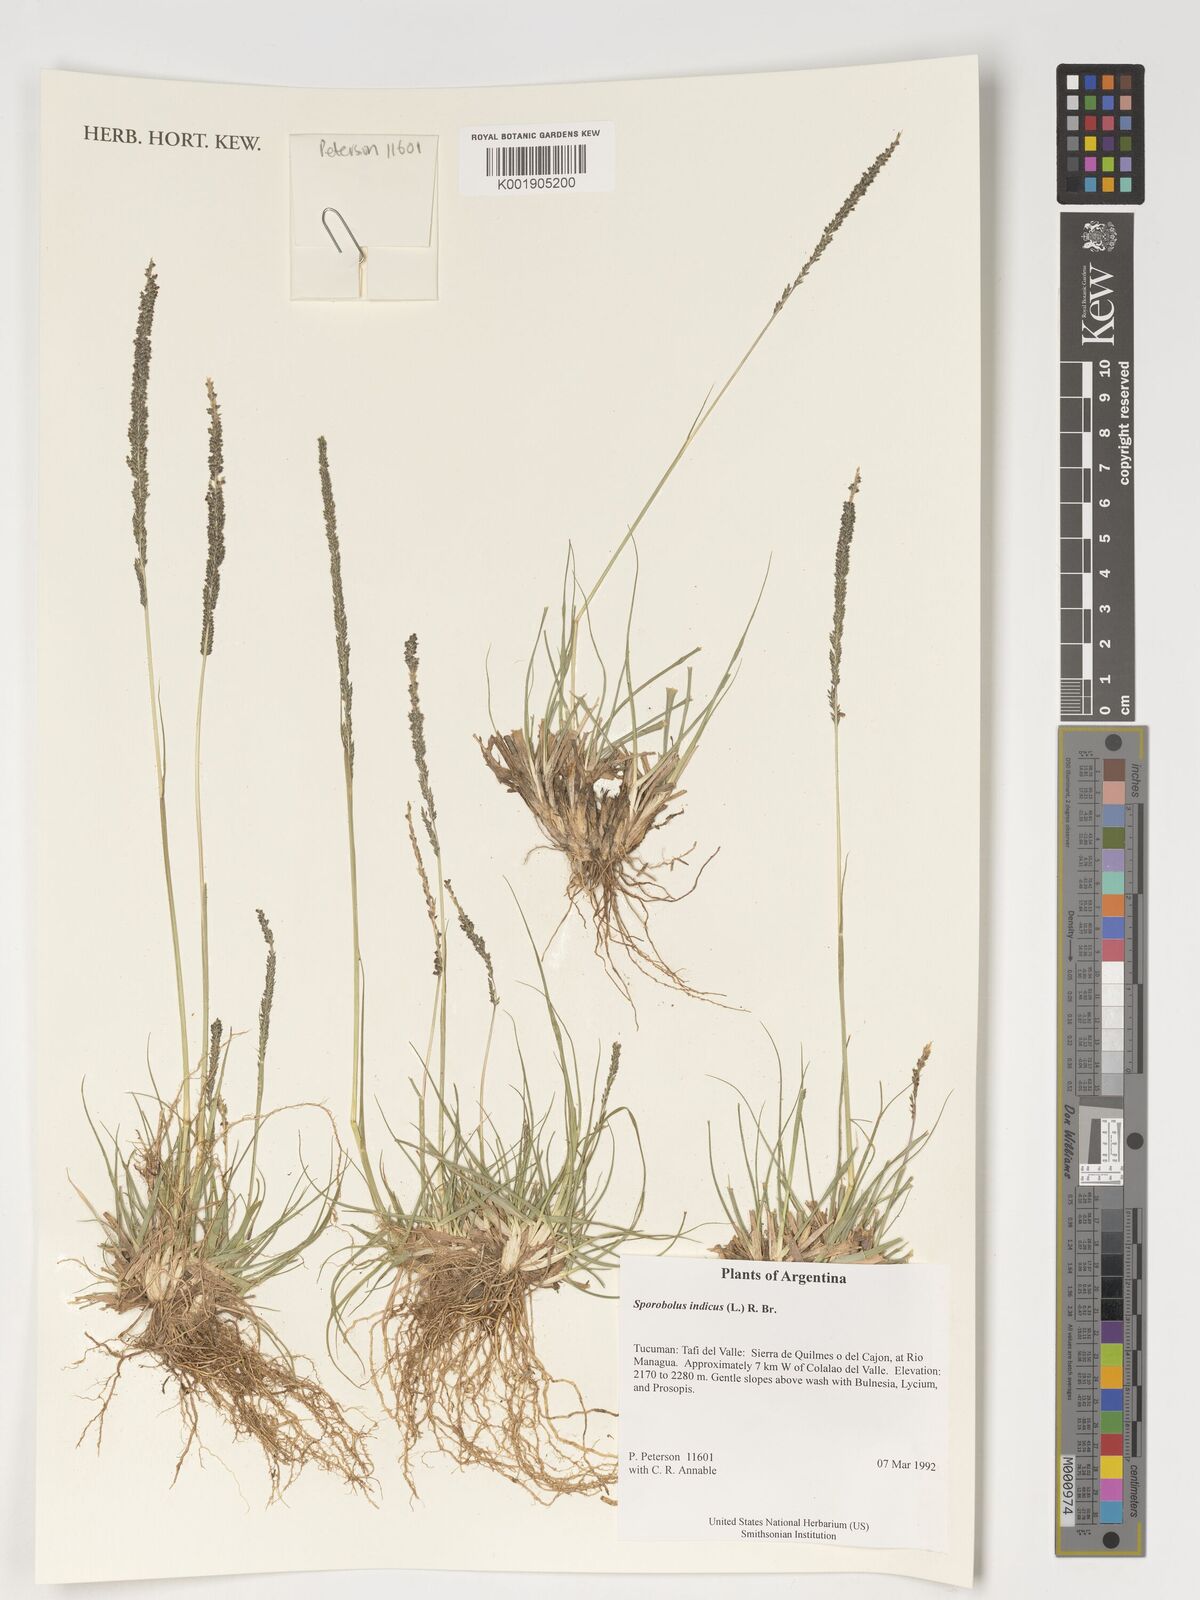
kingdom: Plantae
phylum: Tracheophyta
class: Liliopsida
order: Poales
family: Poaceae
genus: Sporobolus
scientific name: Sporobolus indicus
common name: Smut grass
